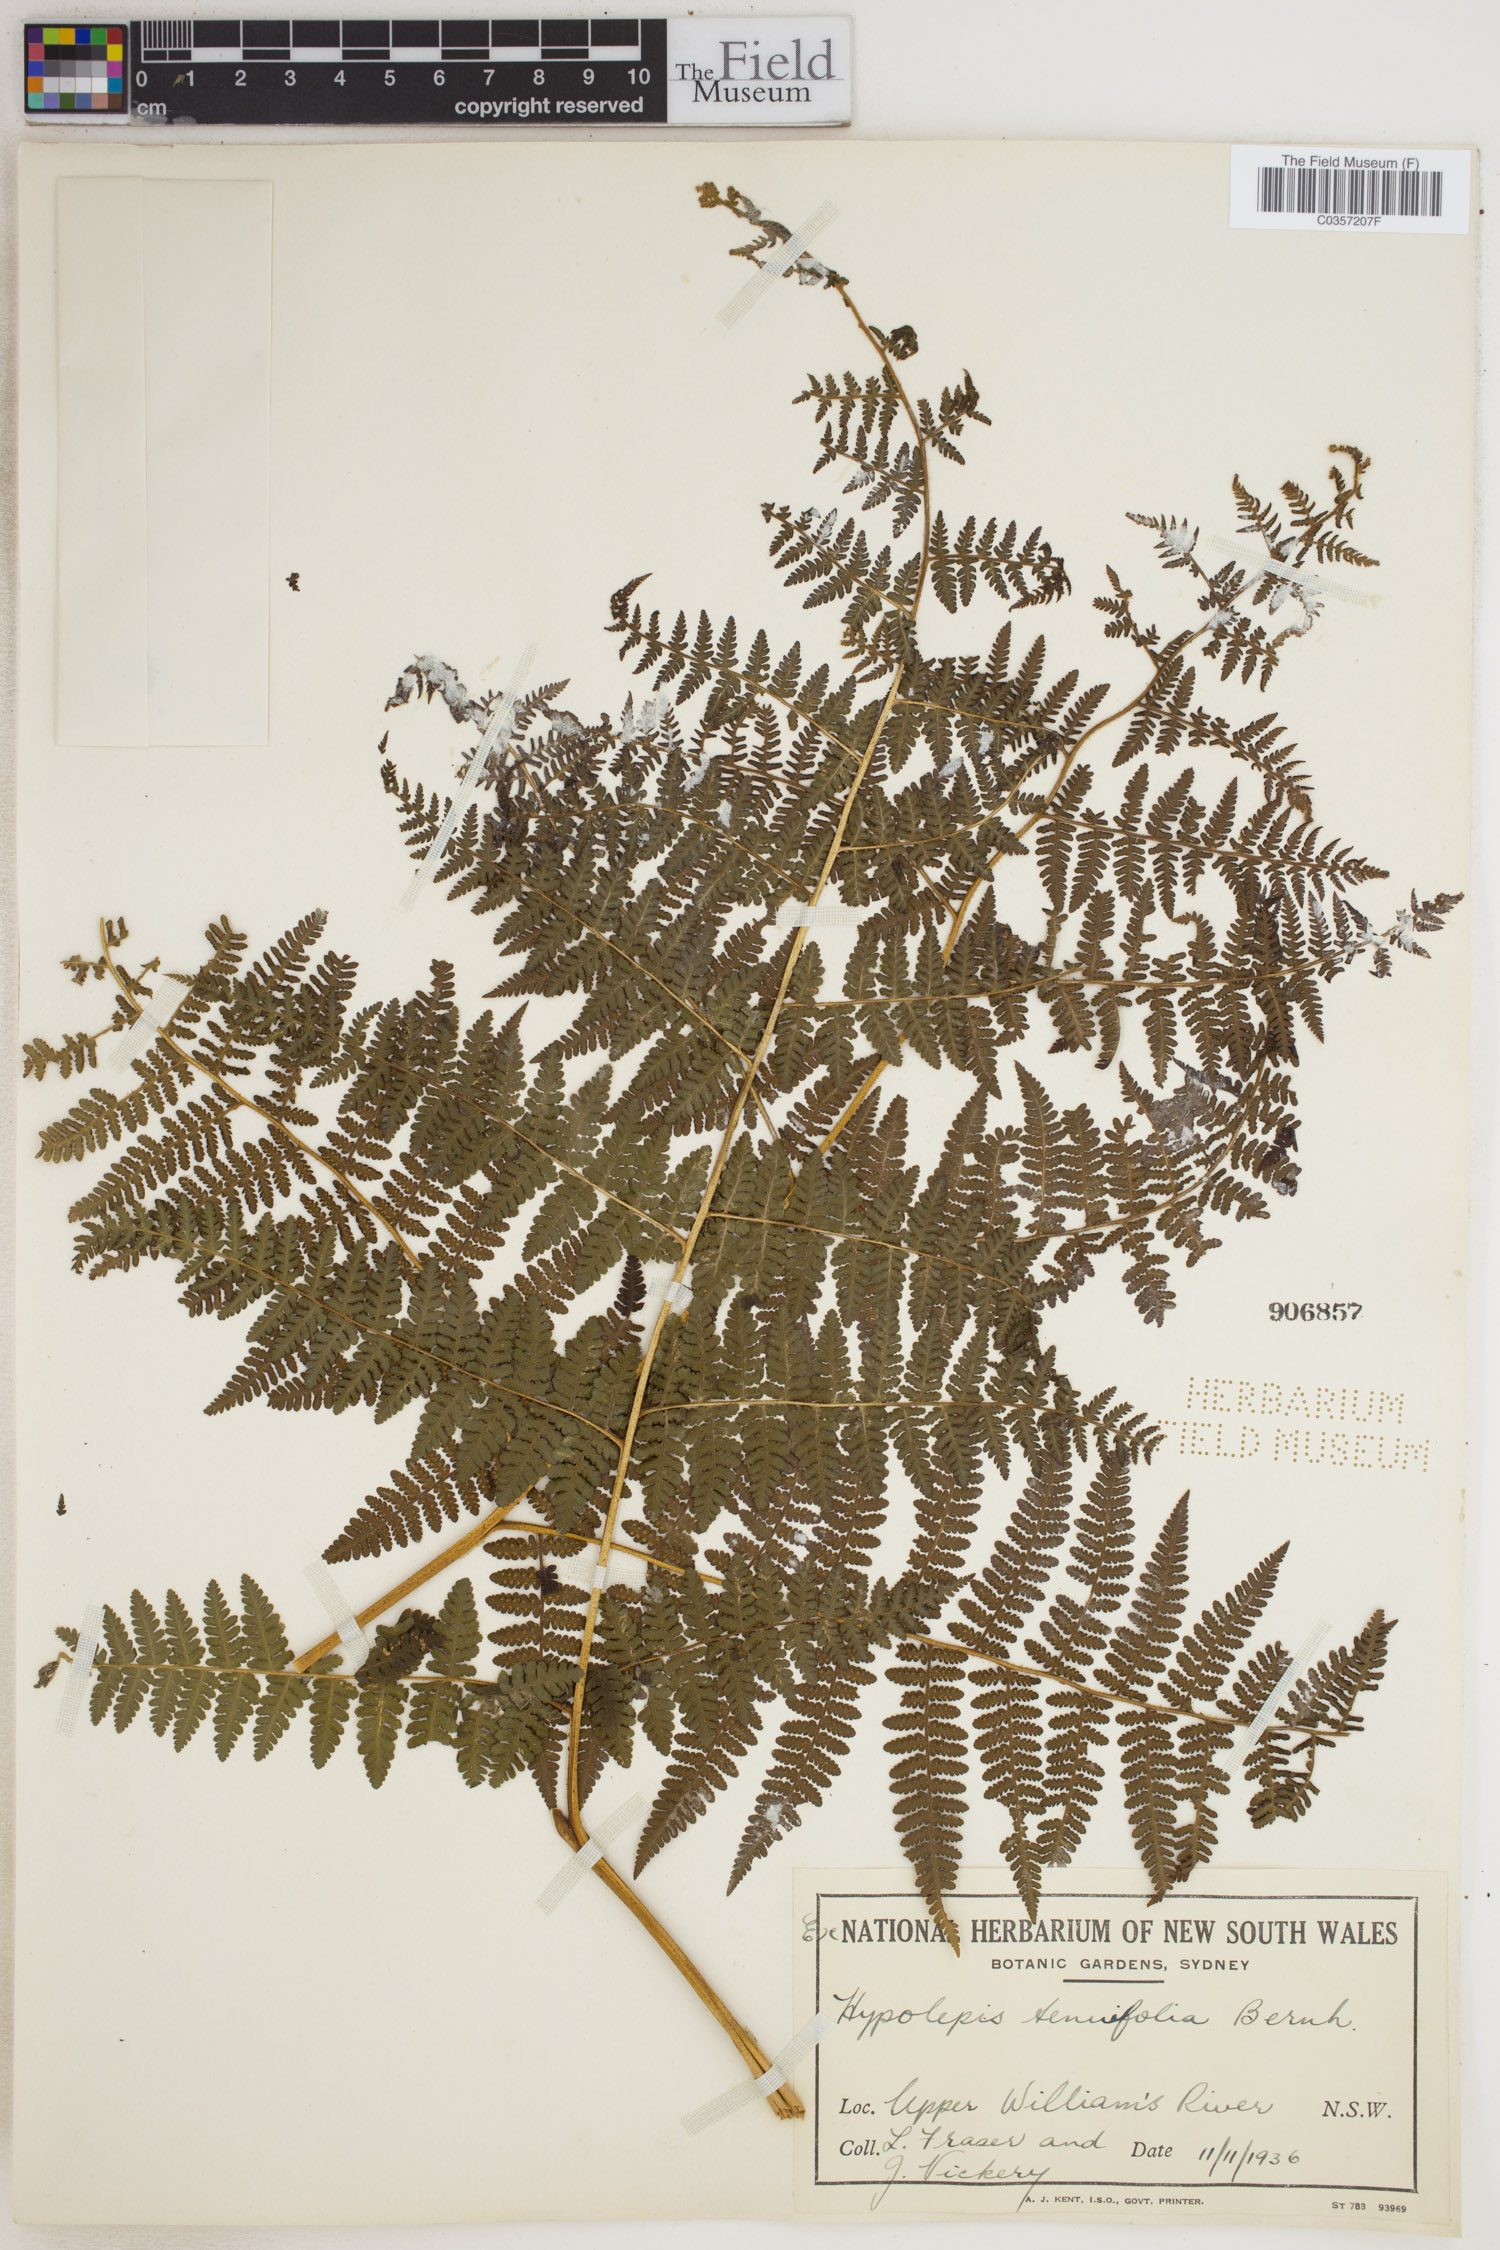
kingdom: Plantae
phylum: Tracheophyta
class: Polypodiopsida
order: Polypodiales
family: Dennstaedtiaceae
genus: Hypolepis
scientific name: Hypolepis tenuifolia
